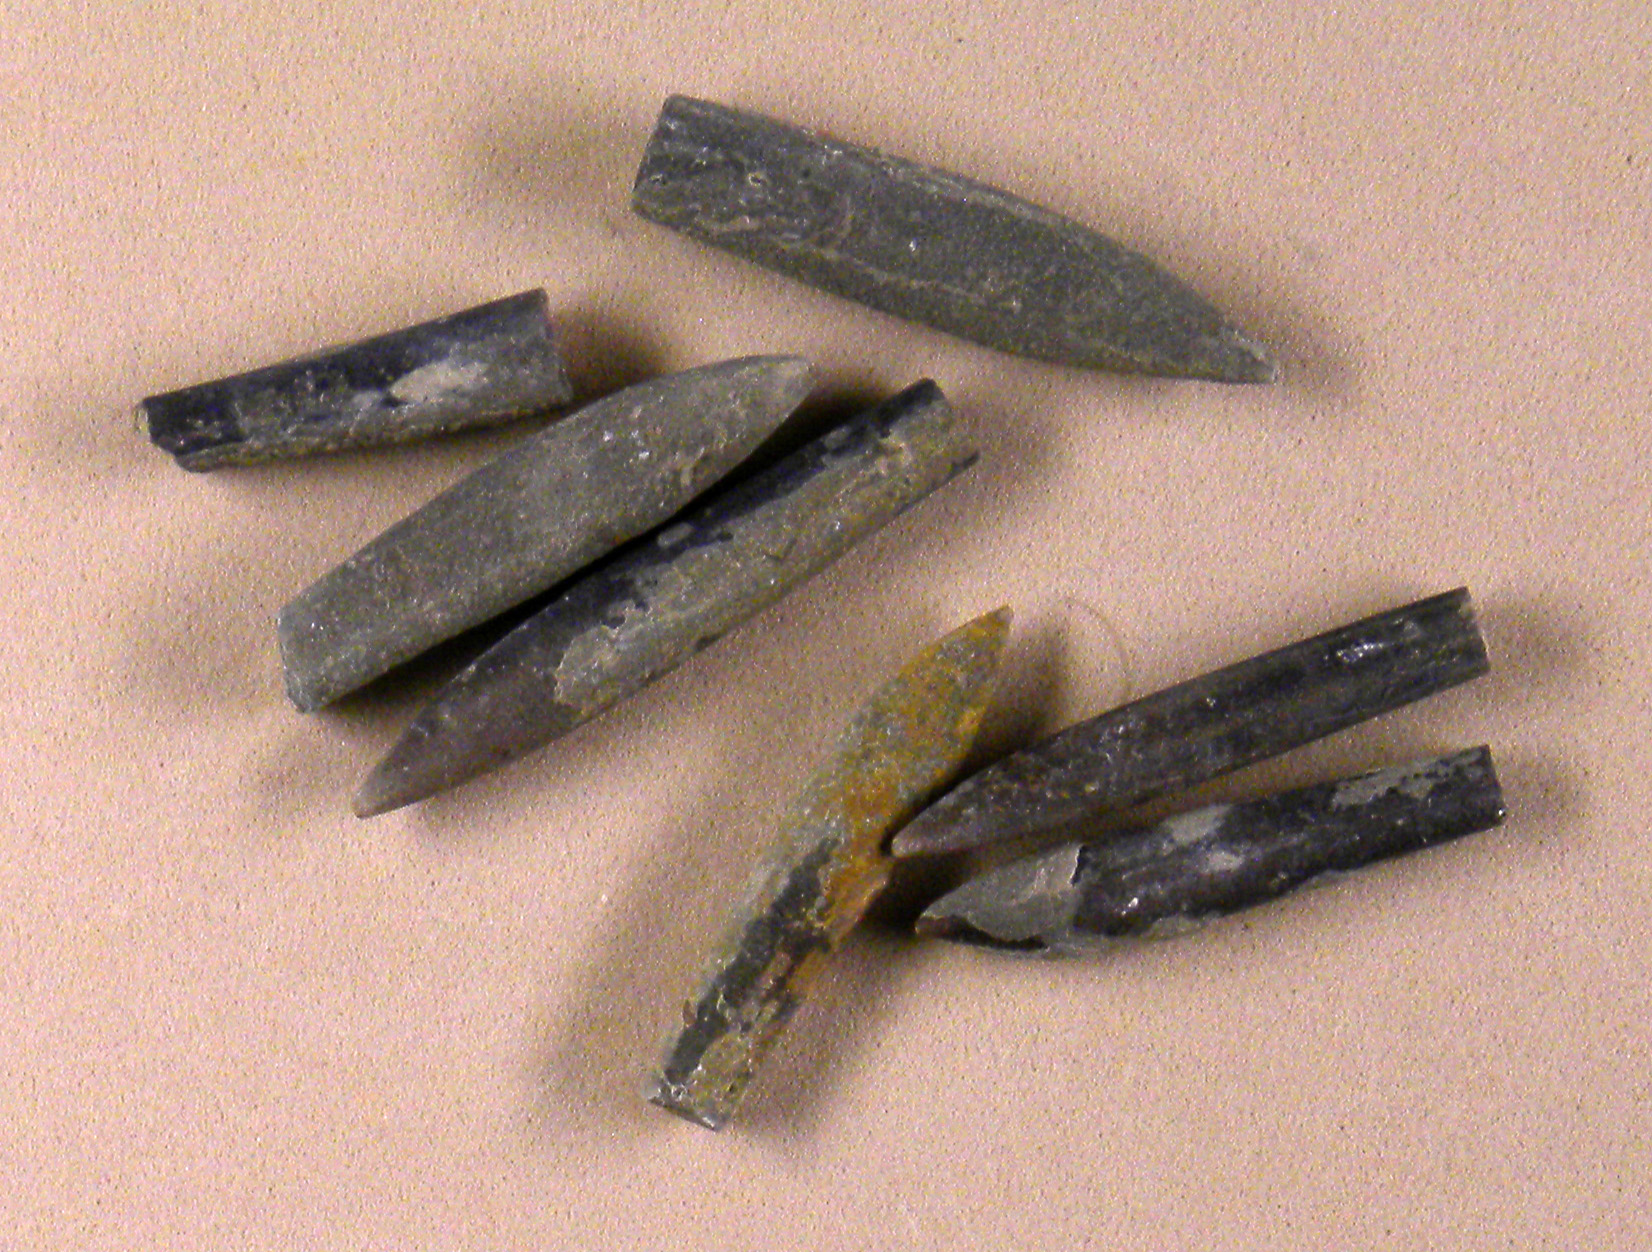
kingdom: Animalia
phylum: Mollusca
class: Cephalopoda
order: Belemnitida
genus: Rhabdobelus
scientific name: Rhabdobelus donovani
